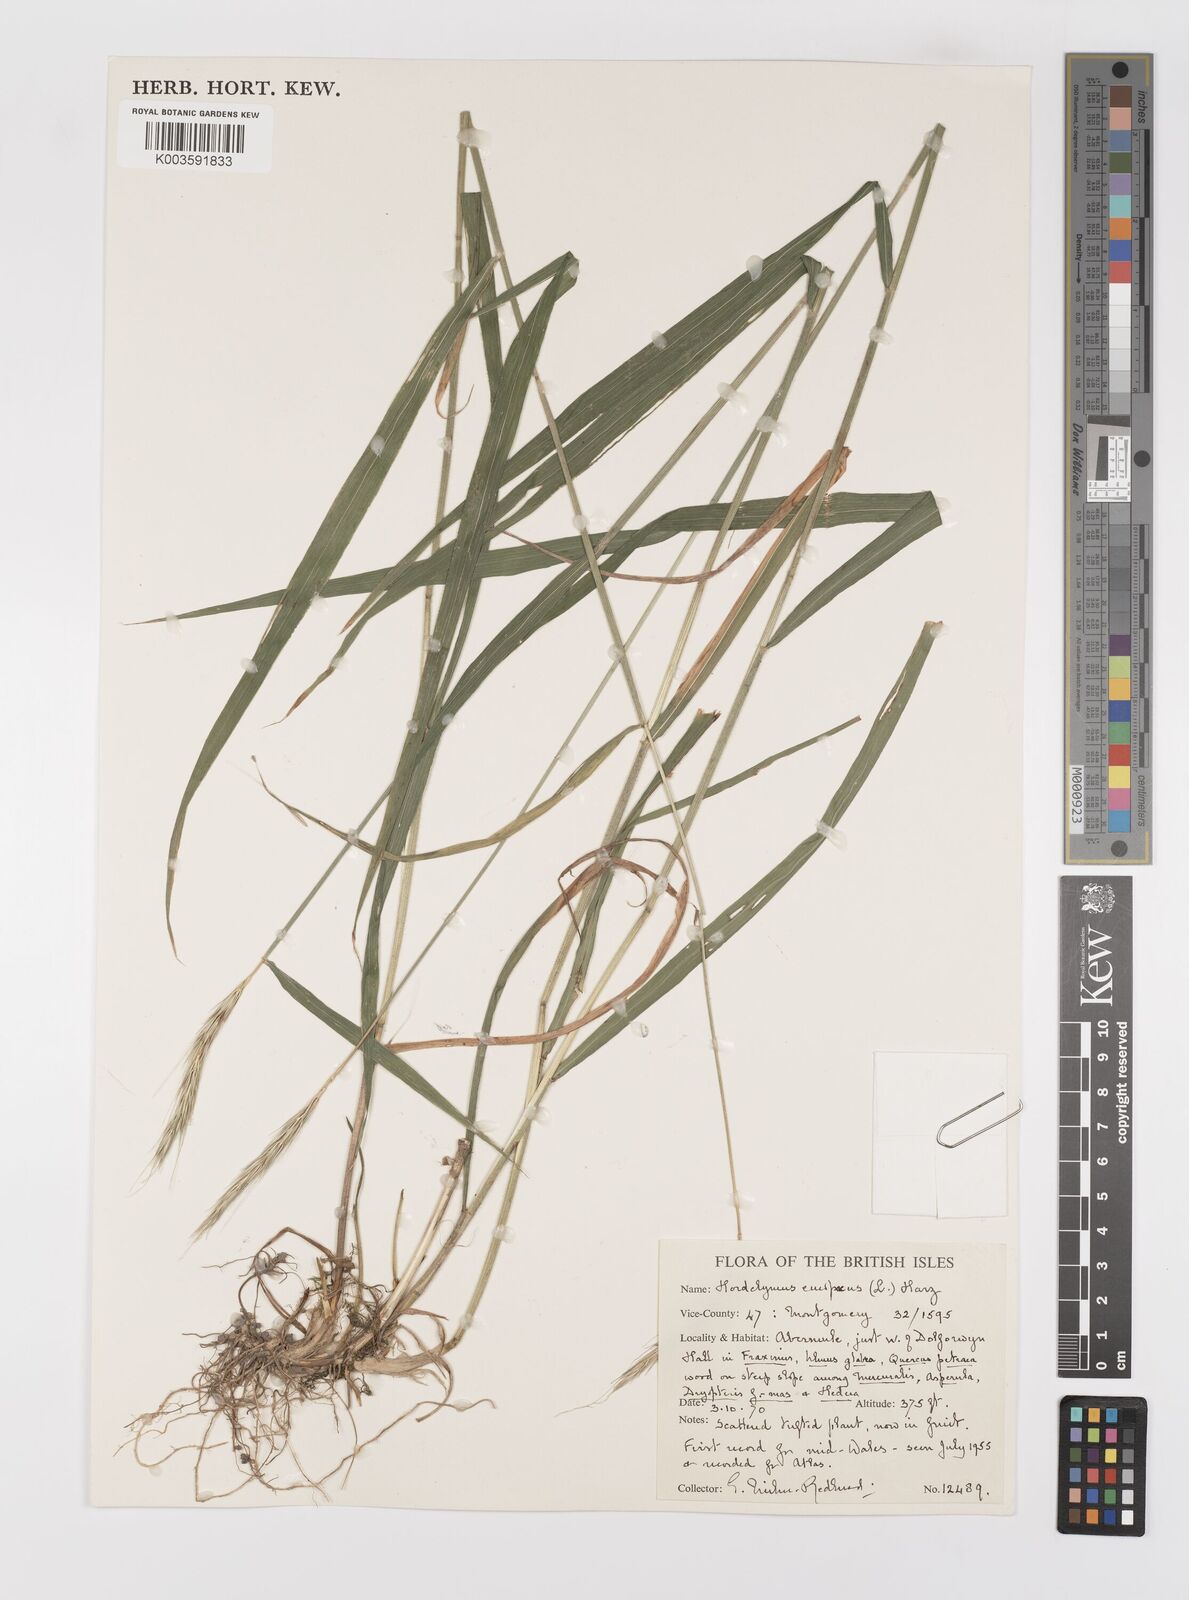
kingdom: Plantae
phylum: Tracheophyta
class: Liliopsida
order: Poales
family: Poaceae
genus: Hordelymus
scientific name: Hordelymus europaeus
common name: Wood-barley
